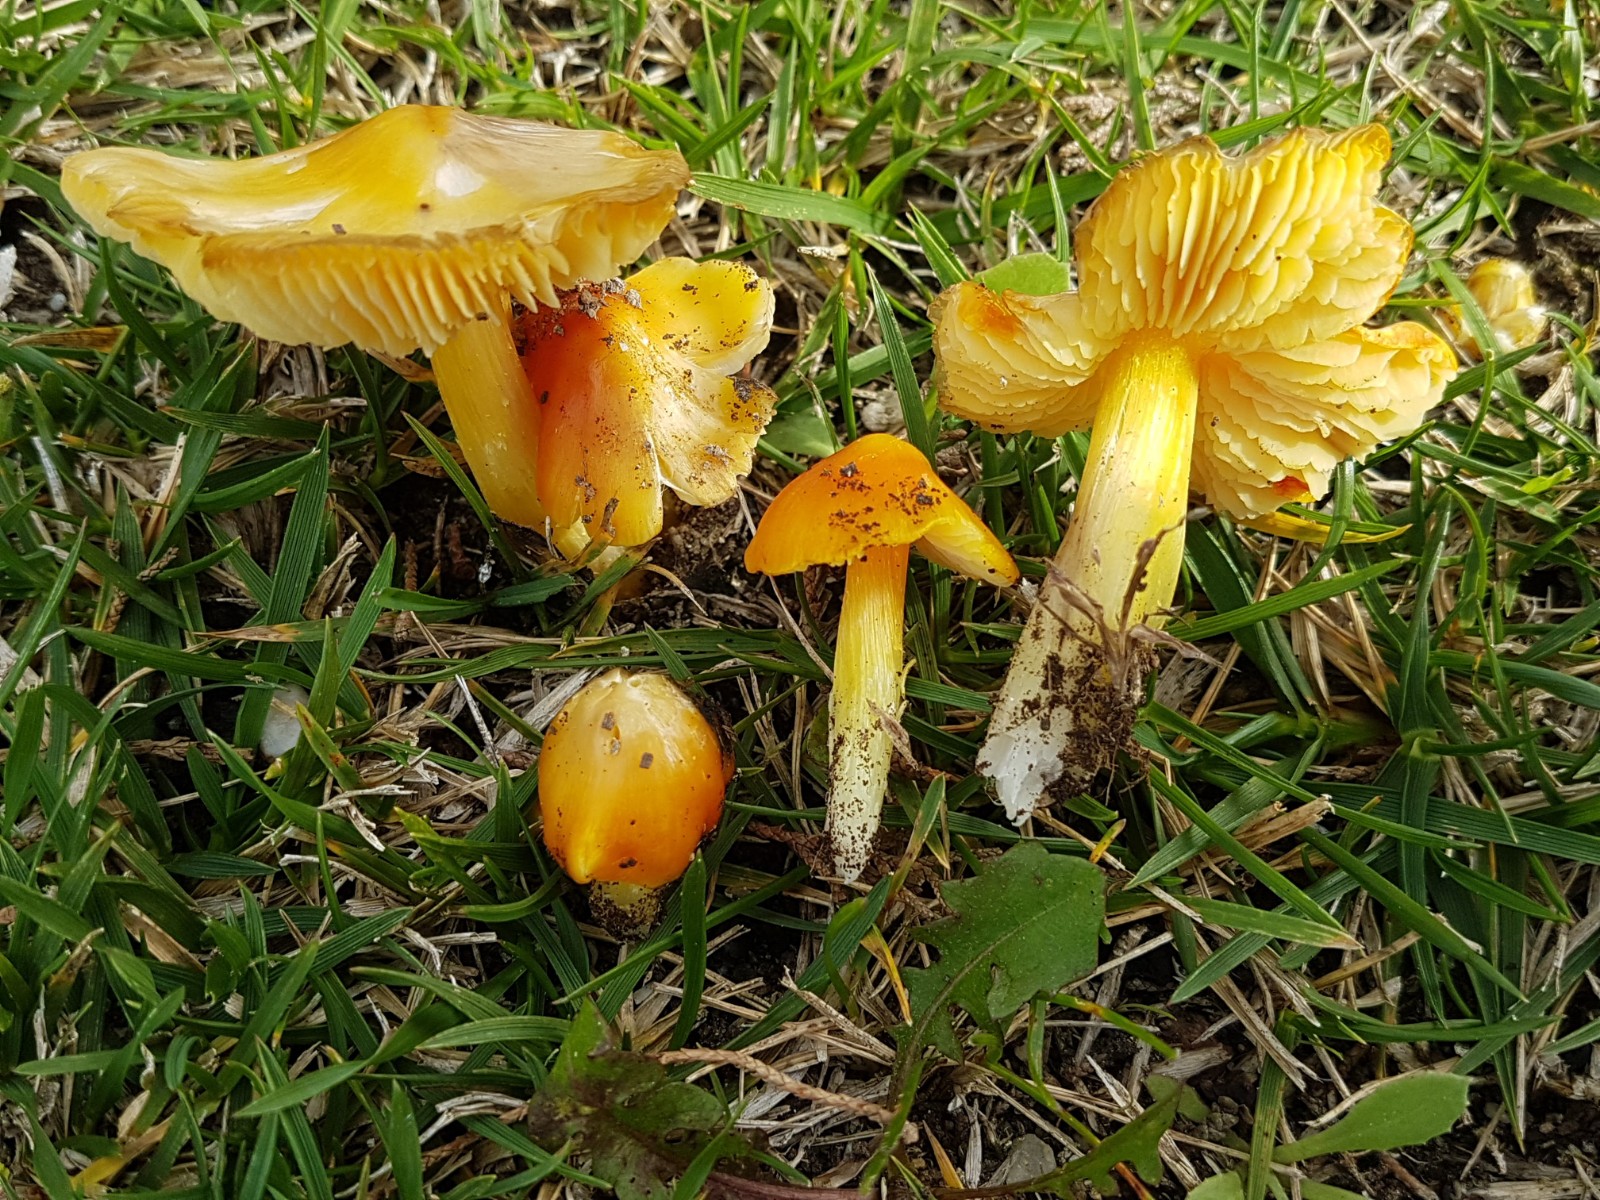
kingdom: Fungi
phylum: Basidiomycota
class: Agaricomycetes
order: Agaricales
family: Hygrophoraceae
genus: Hygrocybe
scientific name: Hygrocybe acutoconica
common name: spidspuklet vokshat
